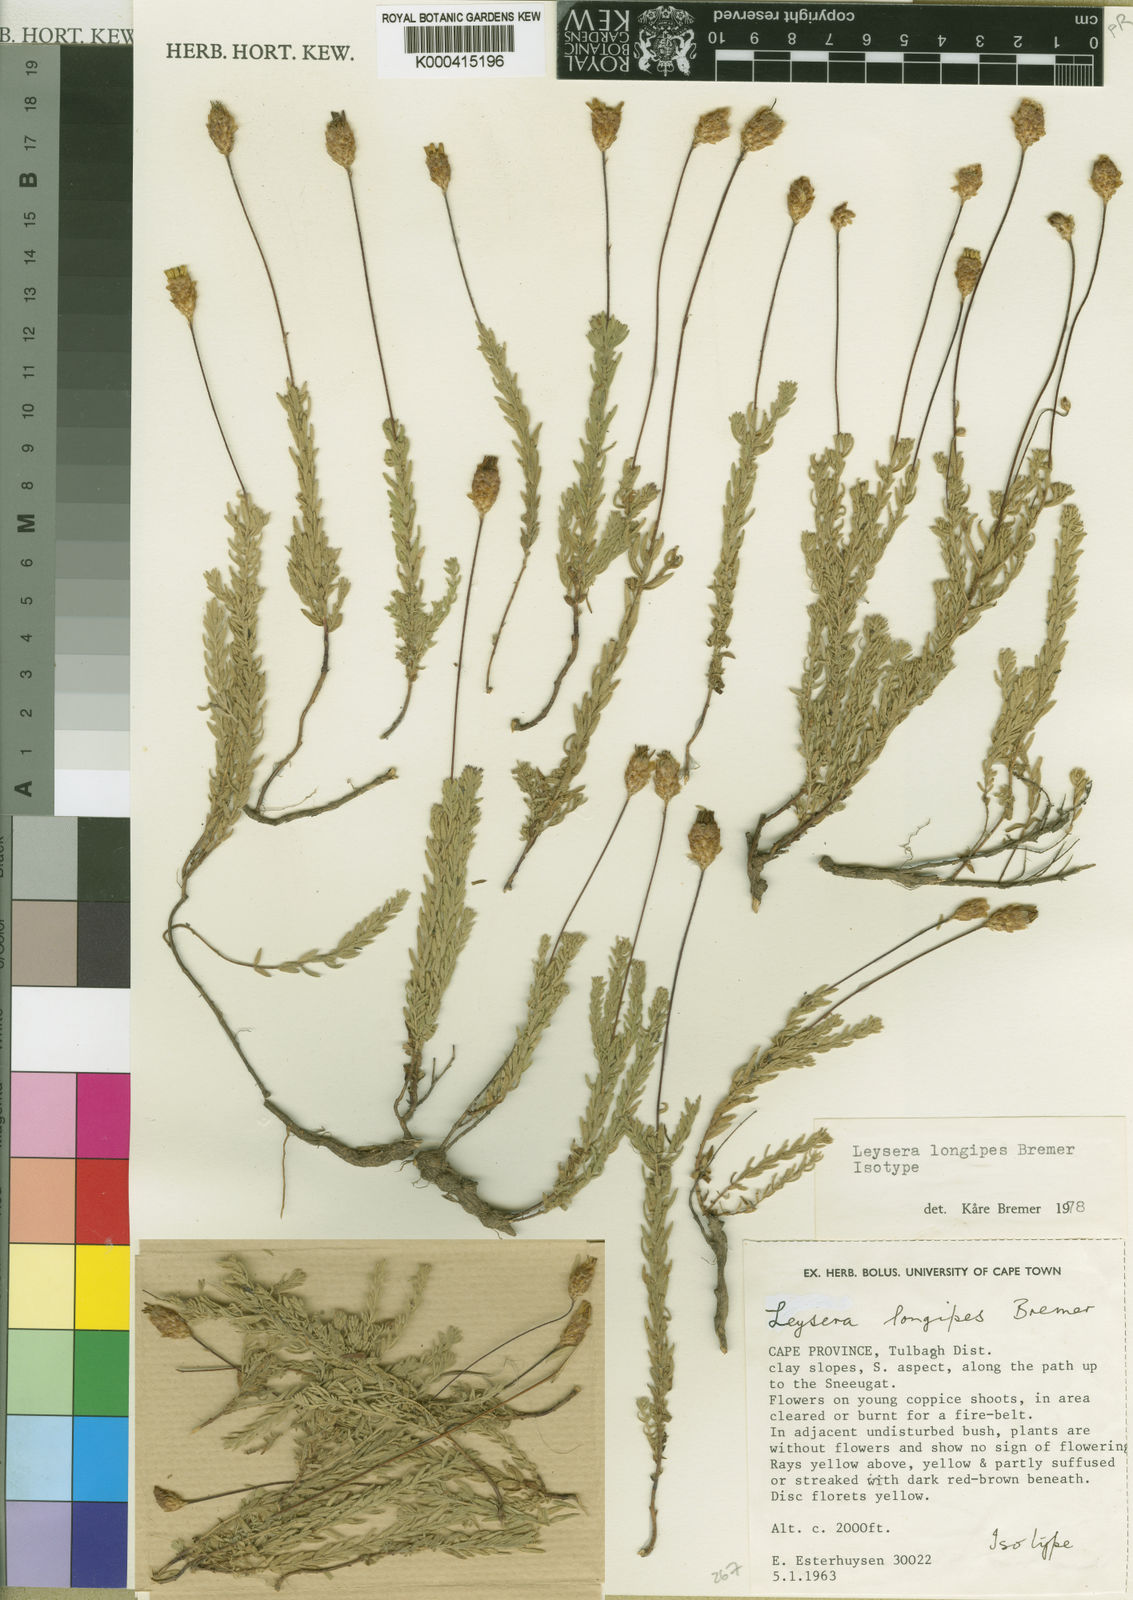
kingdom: Plantae
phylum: Tracheophyta
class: Magnoliopsida
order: Asterales
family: Asteraceae
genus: Oedera
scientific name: Oedera longipes
